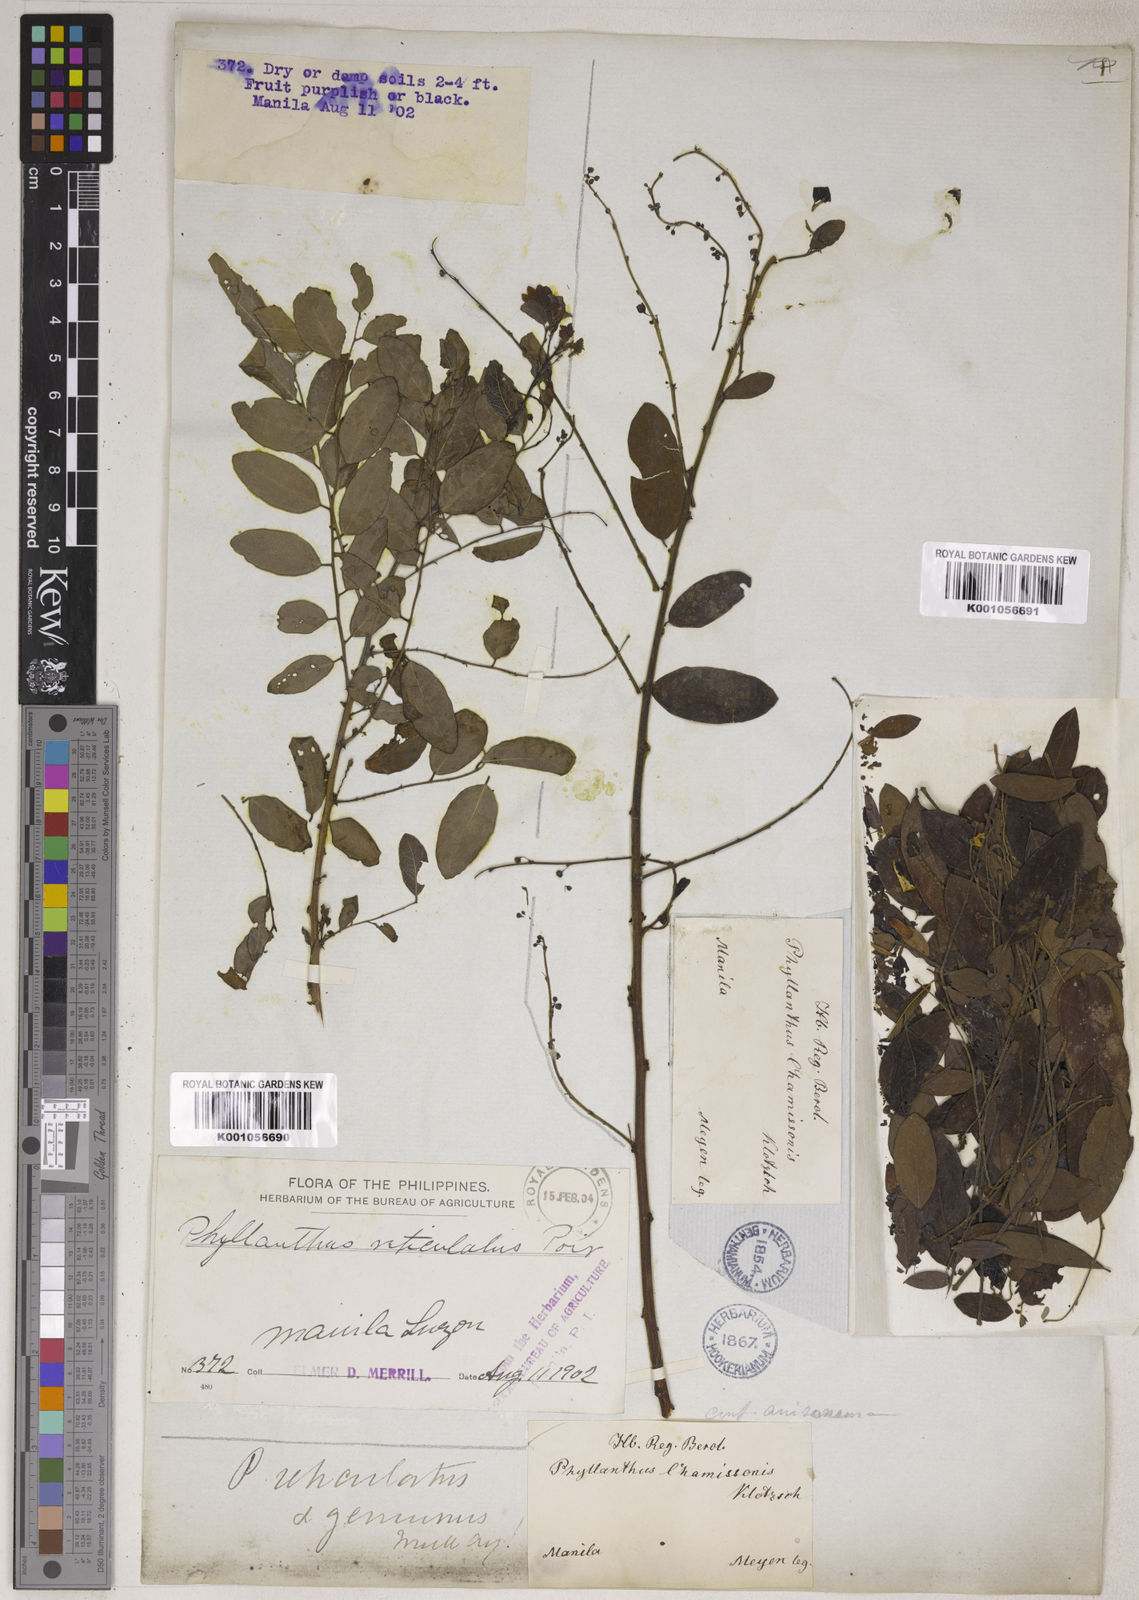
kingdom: Plantae
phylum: Tracheophyta
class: Magnoliopsida
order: Malpighiales
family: Phyllanthaceae
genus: Phyllanthus
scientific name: Phyllanthus reticulatus
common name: Potato bush
